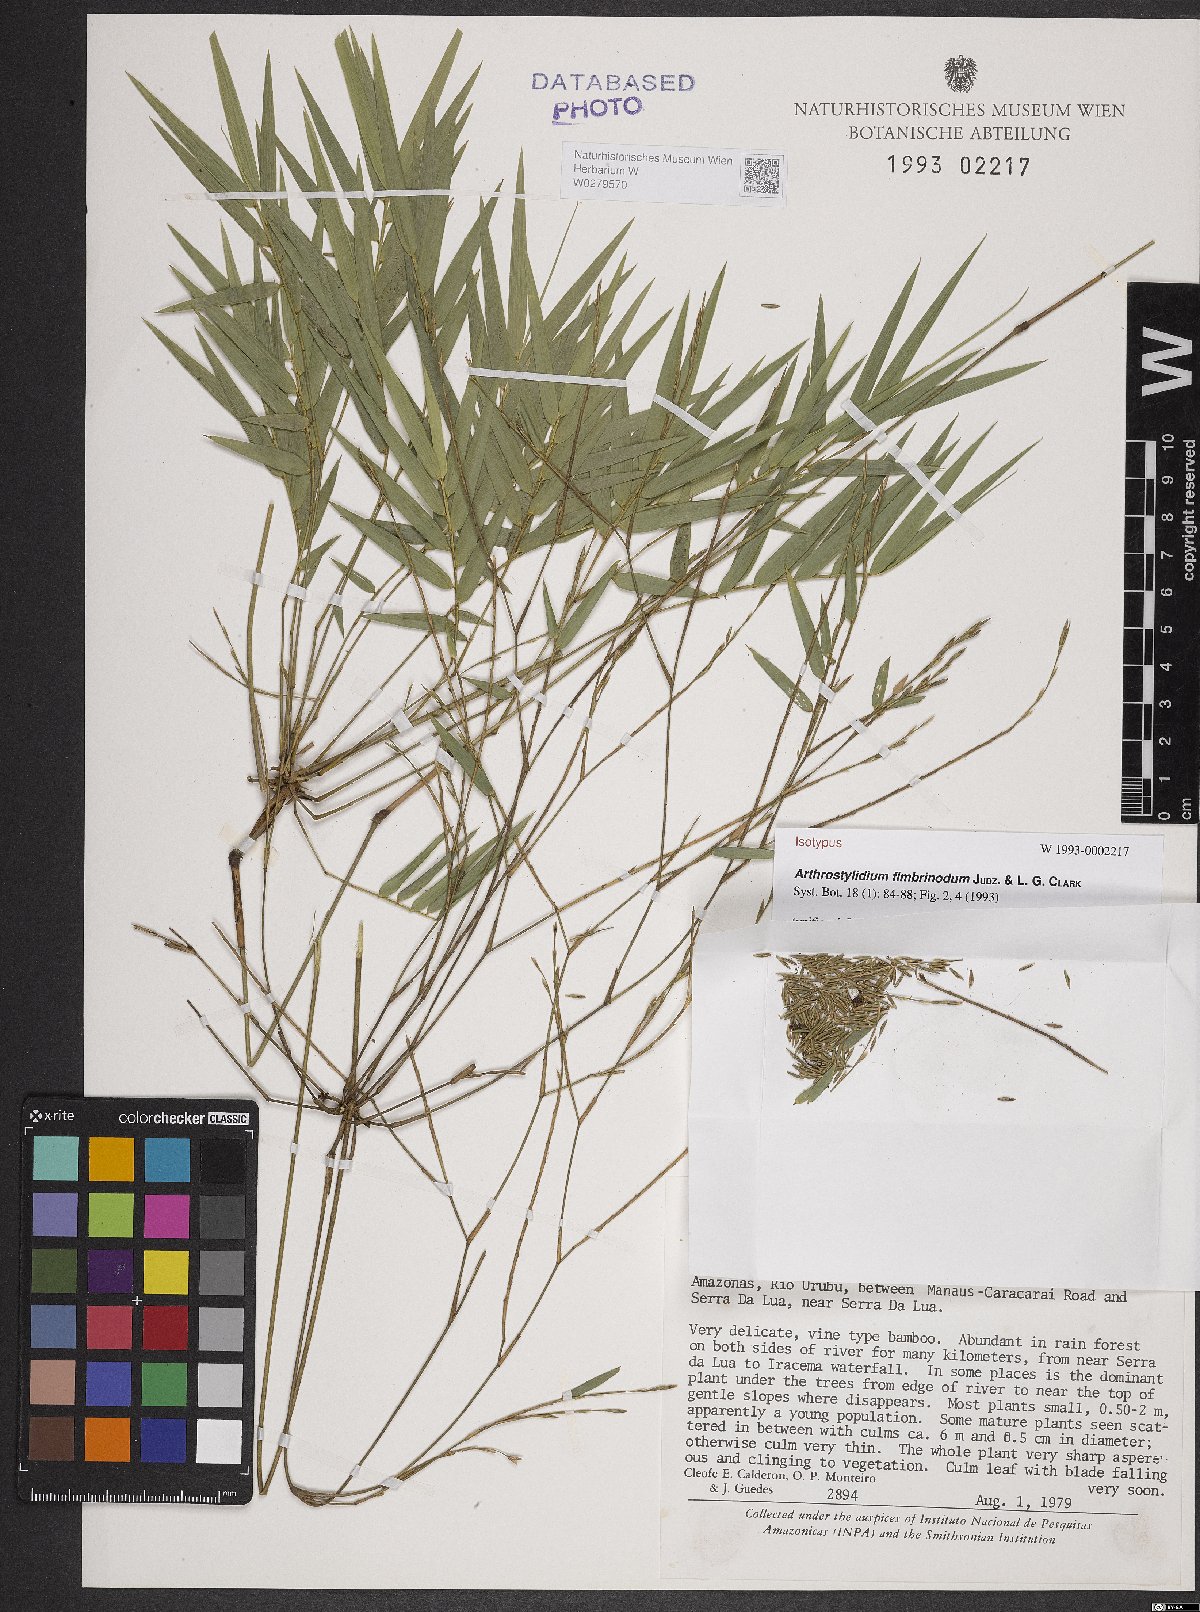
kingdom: Plantae
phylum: Tracheophyta
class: Liliopsida
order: Poales
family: Poaceae
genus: Arthrostylidium
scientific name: Arthrostylidium fimbrinodum
